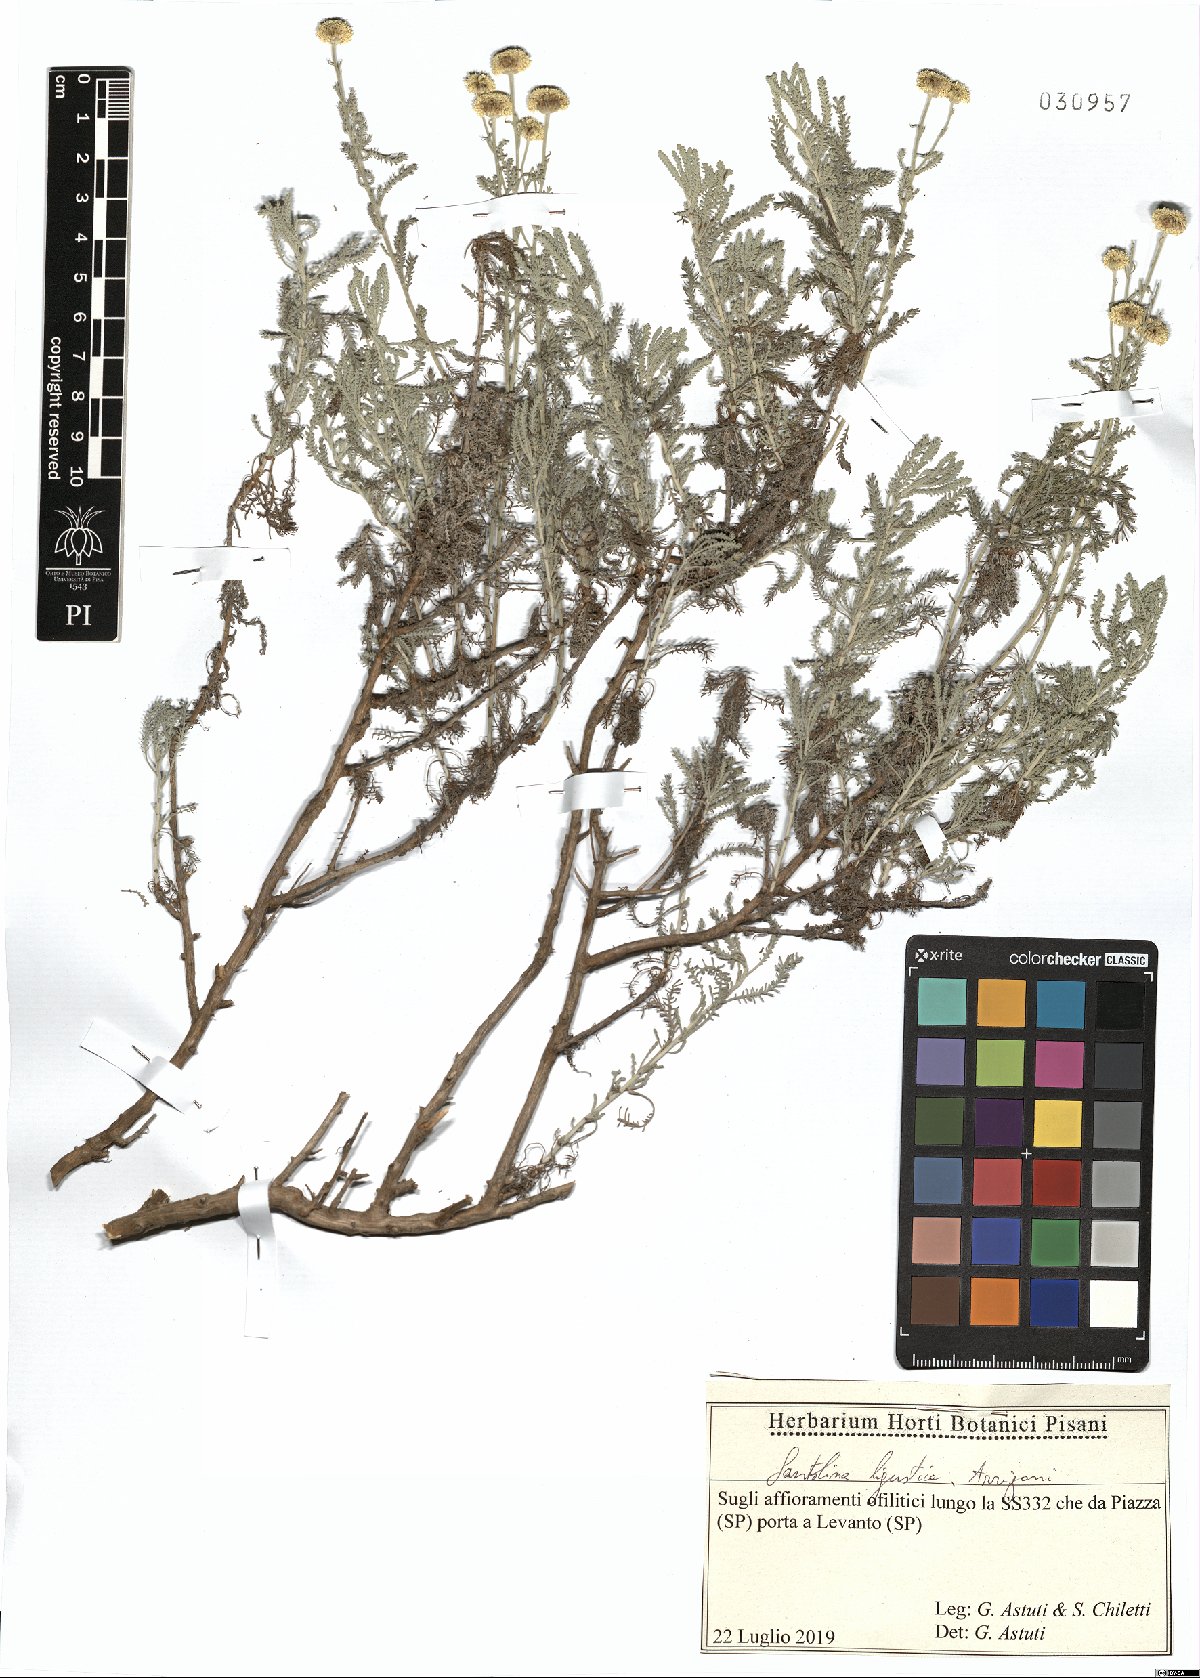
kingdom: Plantae
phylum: Tracheophyta
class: Magnoliopsida
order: Asterales
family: Asteraceae
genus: Santolina
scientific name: Santolina ligustica
